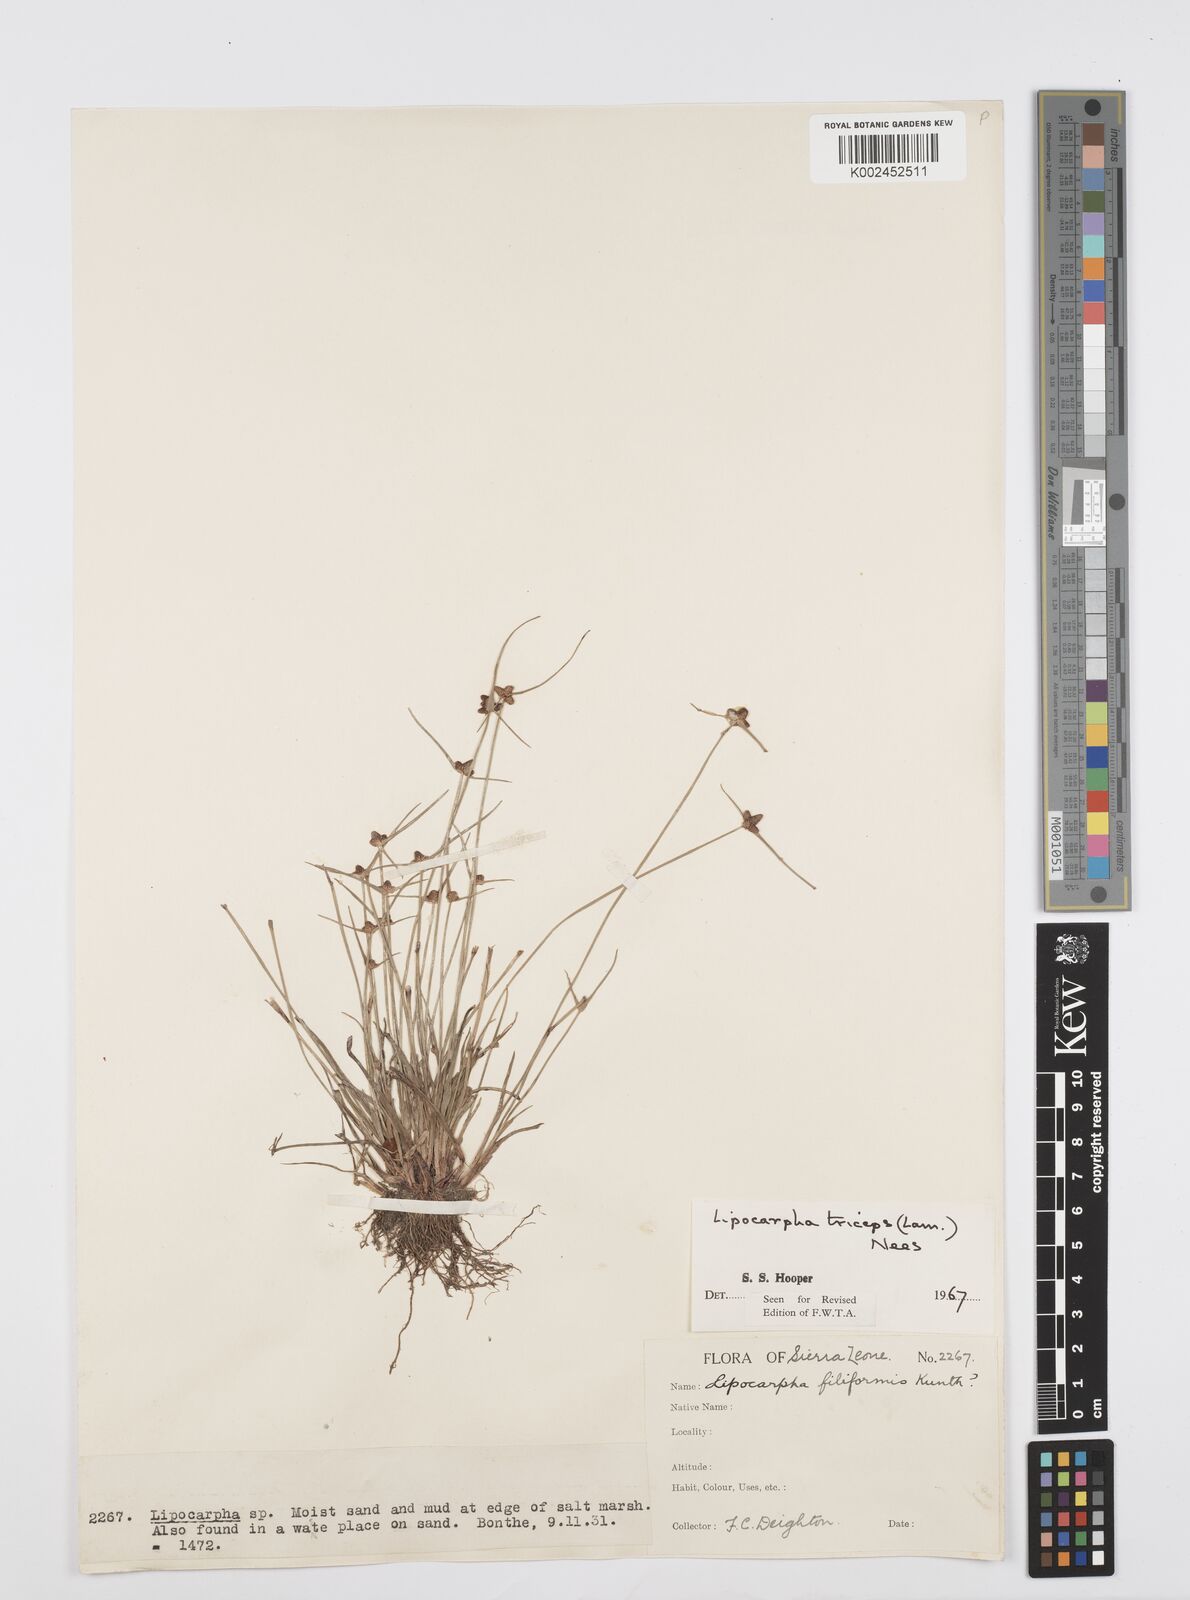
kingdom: Plantae
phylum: Tracheophyta
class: Liliopsida
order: Poales
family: Cyperaceae
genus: Cyperus
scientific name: Cyperus filiformis
